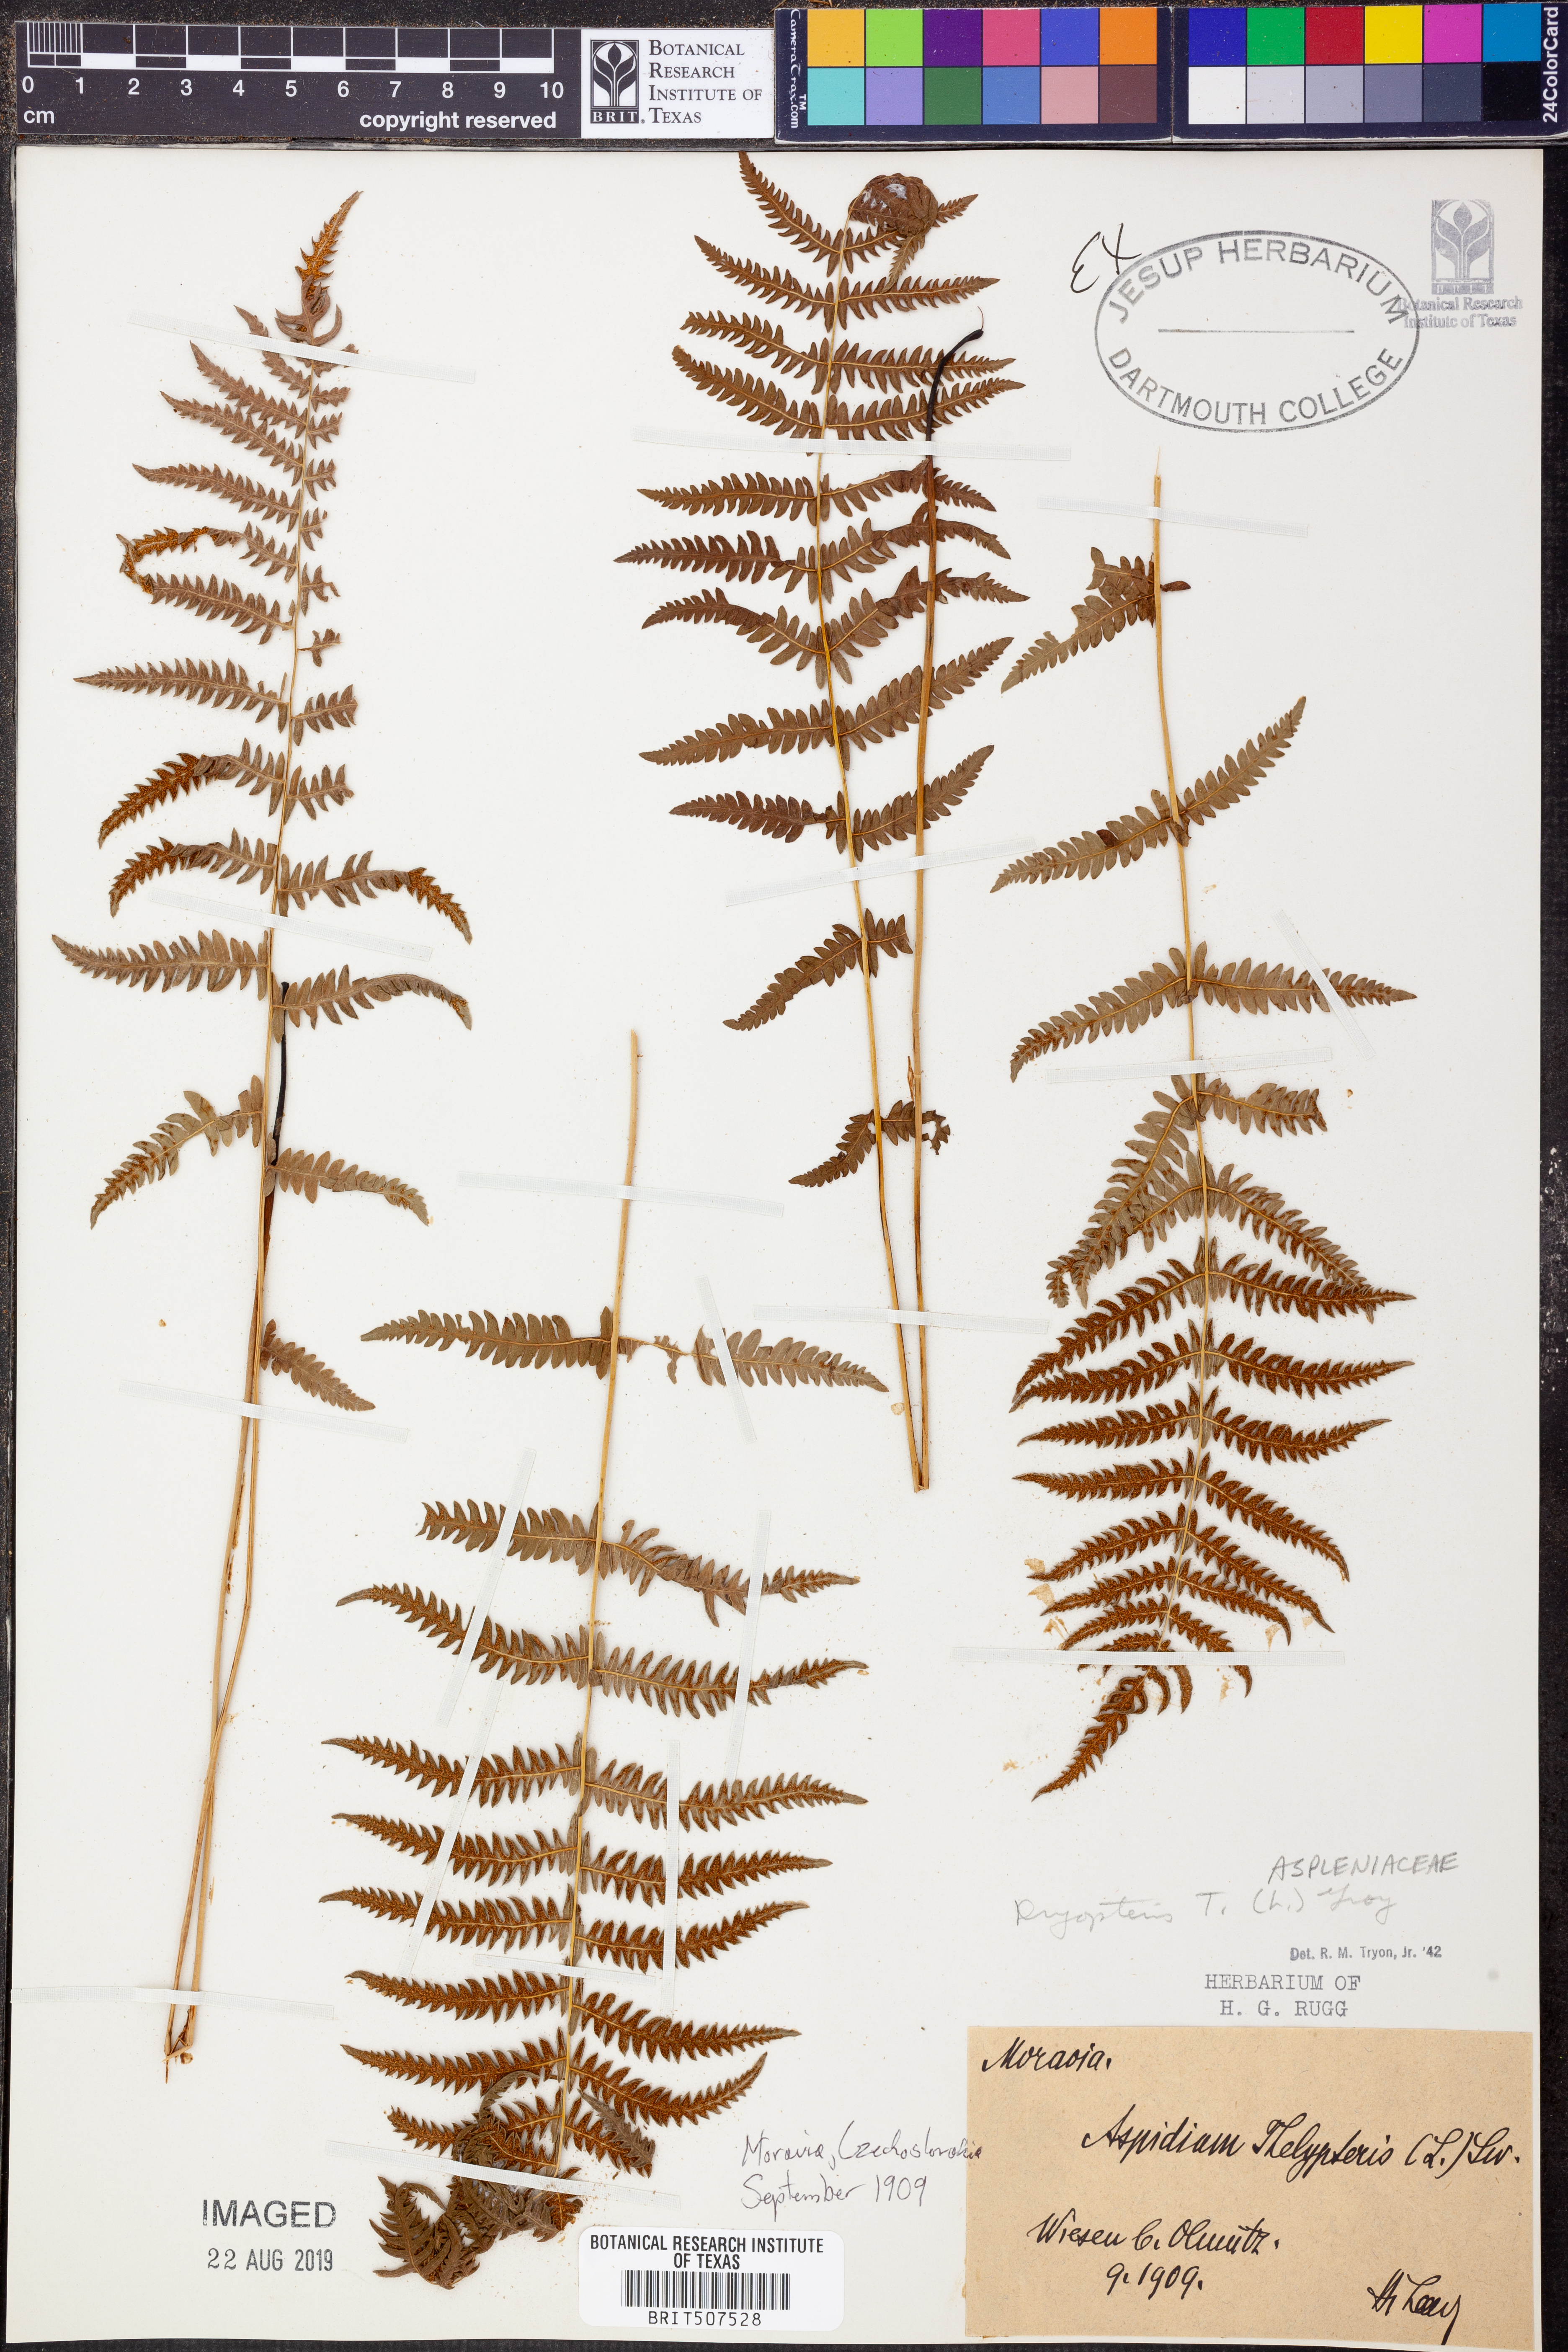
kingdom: Plantae
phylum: Tracheophyta
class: Polypodiopsida
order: Polypodiales
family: Thelypteridaceae
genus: Thelypteris
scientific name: Thelypteris palustris
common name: Marsh fern
